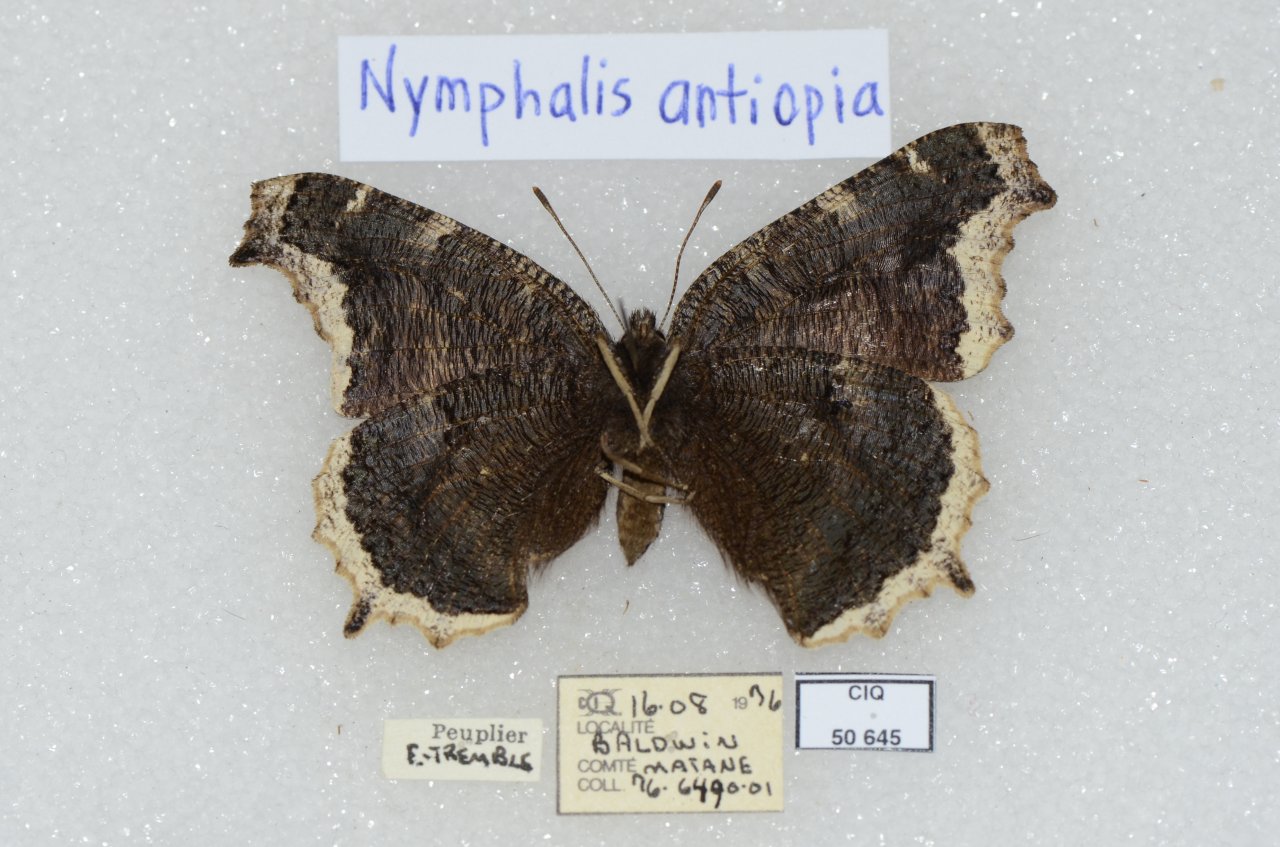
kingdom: Animalia
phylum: Arthropoda
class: Insecta
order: Lepidoptera
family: Nymphalidae
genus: Nymphalis
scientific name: Nymphalis antiopa
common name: Mourning Cloak
